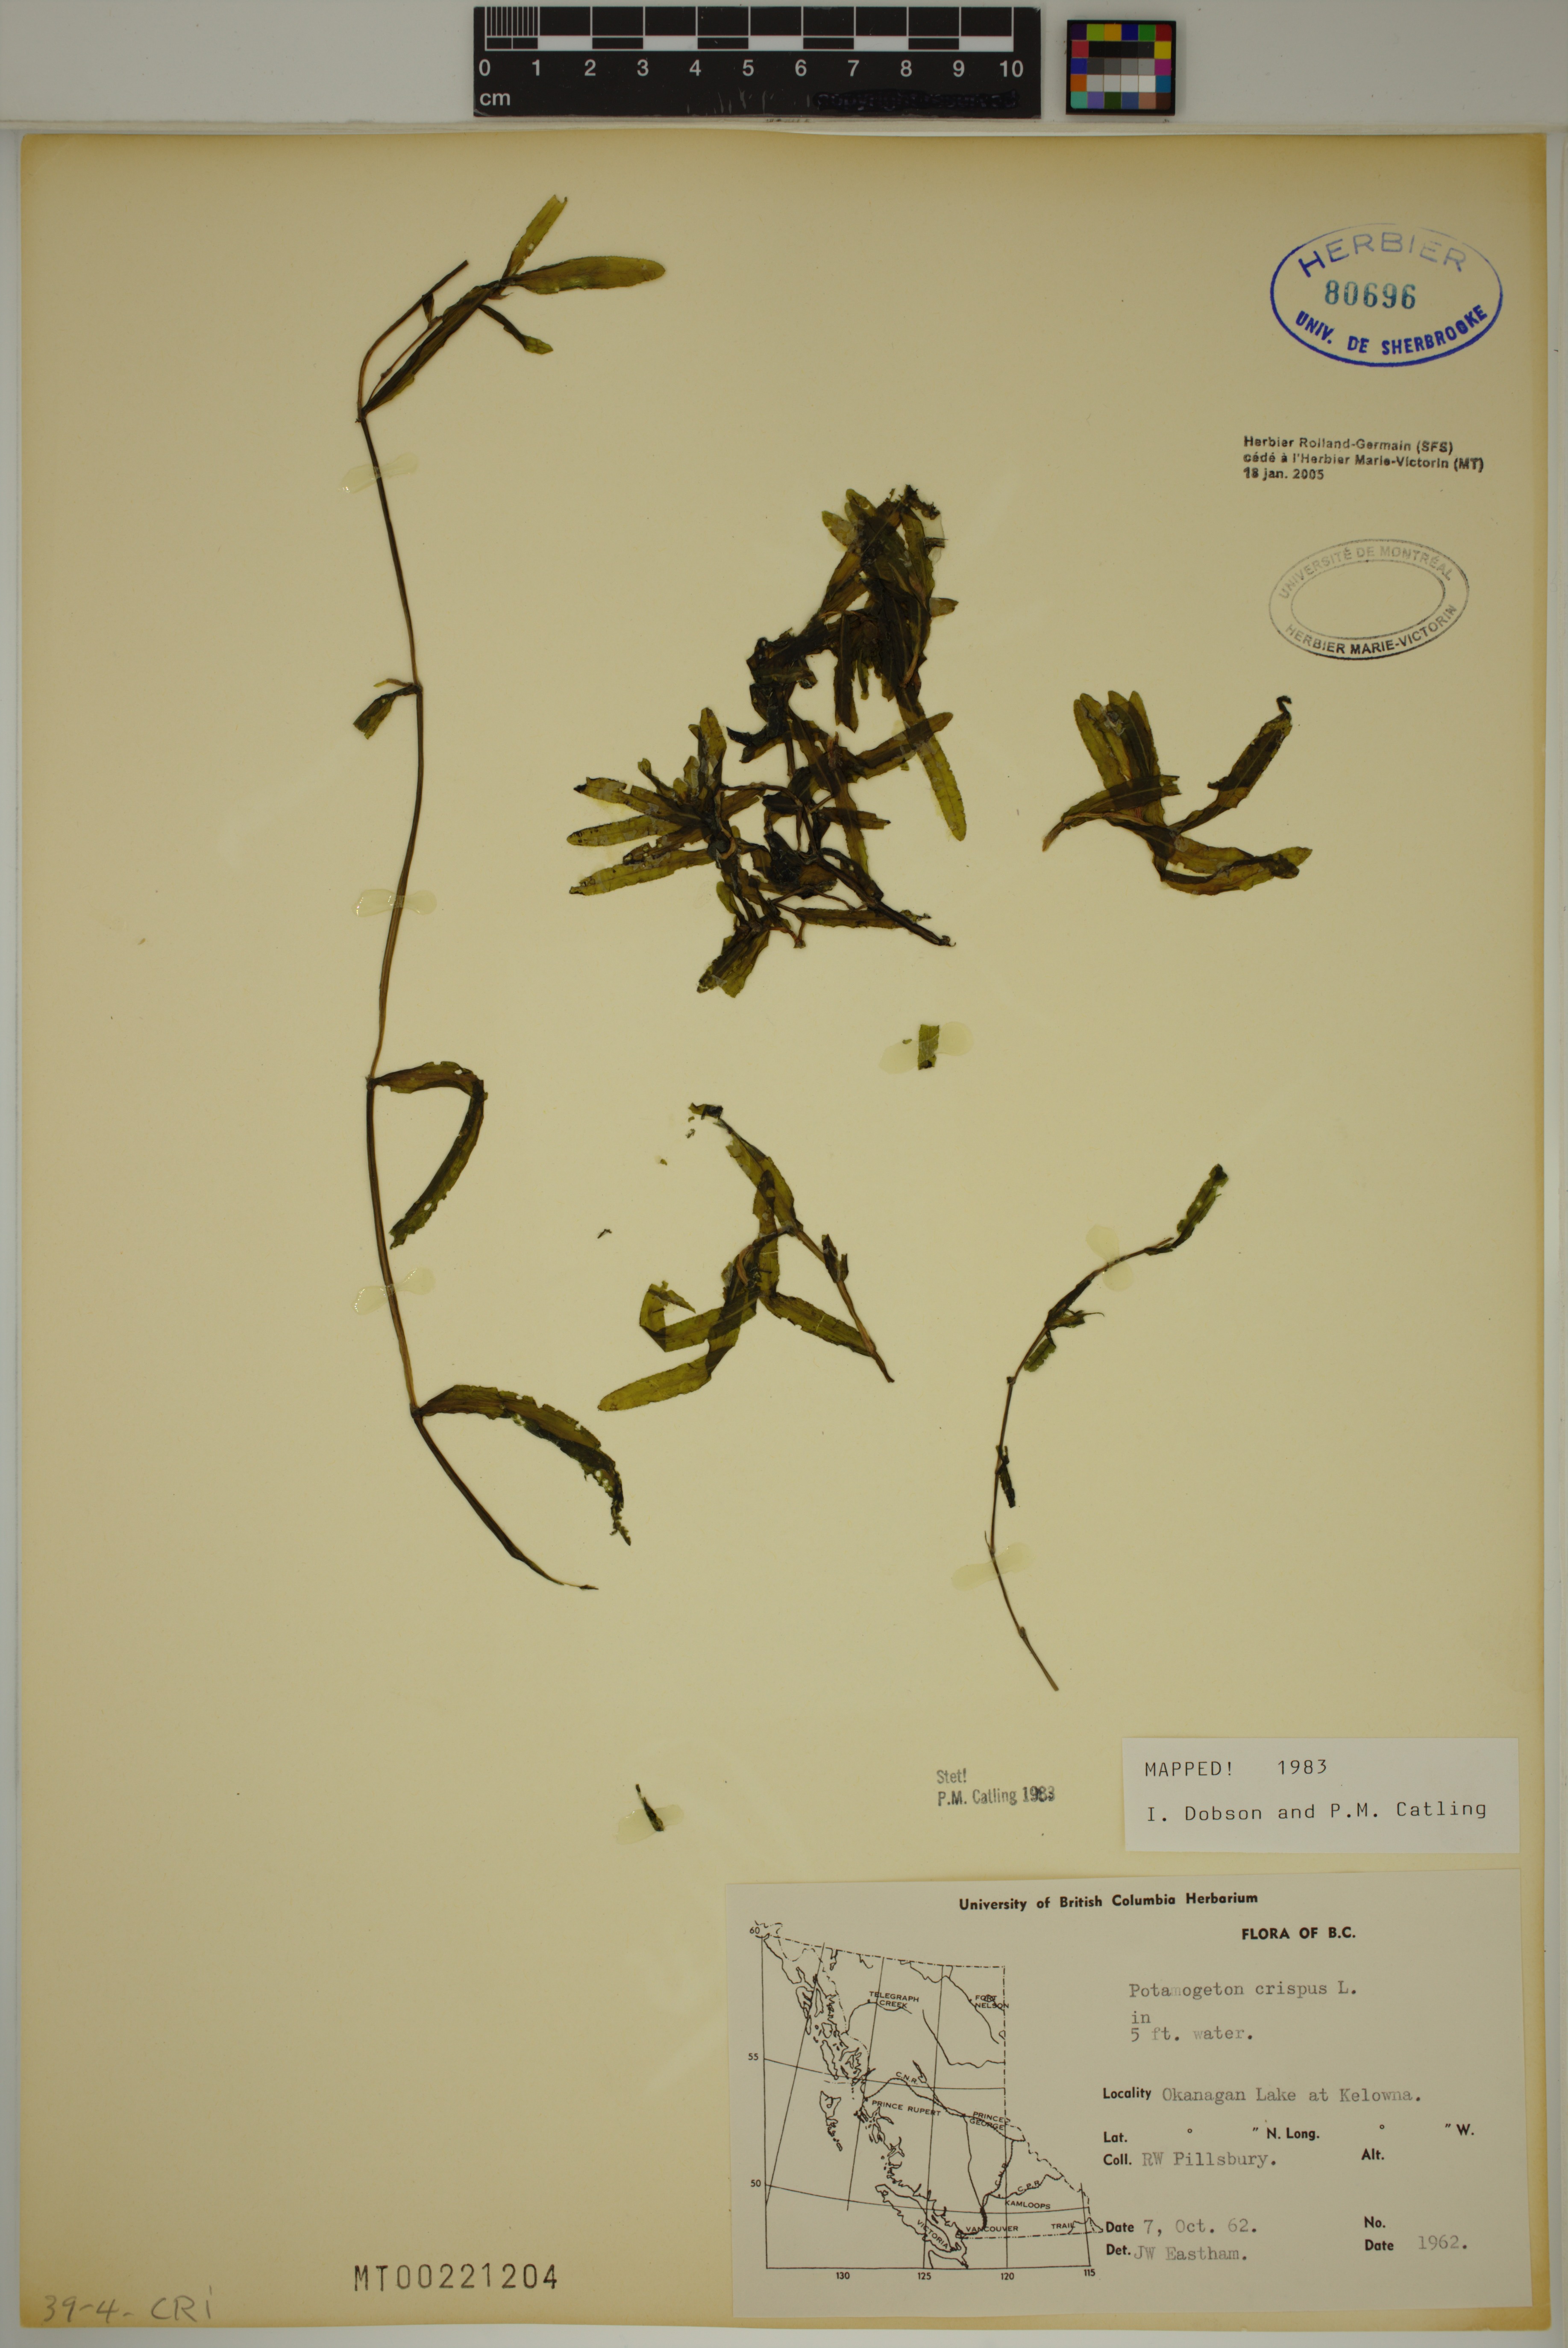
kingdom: Plantae
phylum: Tracheophyta
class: Liliopsida
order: Alismatales
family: Potamogetonaceae
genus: Potamogeton
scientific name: Potamogeton crispus
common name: Curled pondweed
